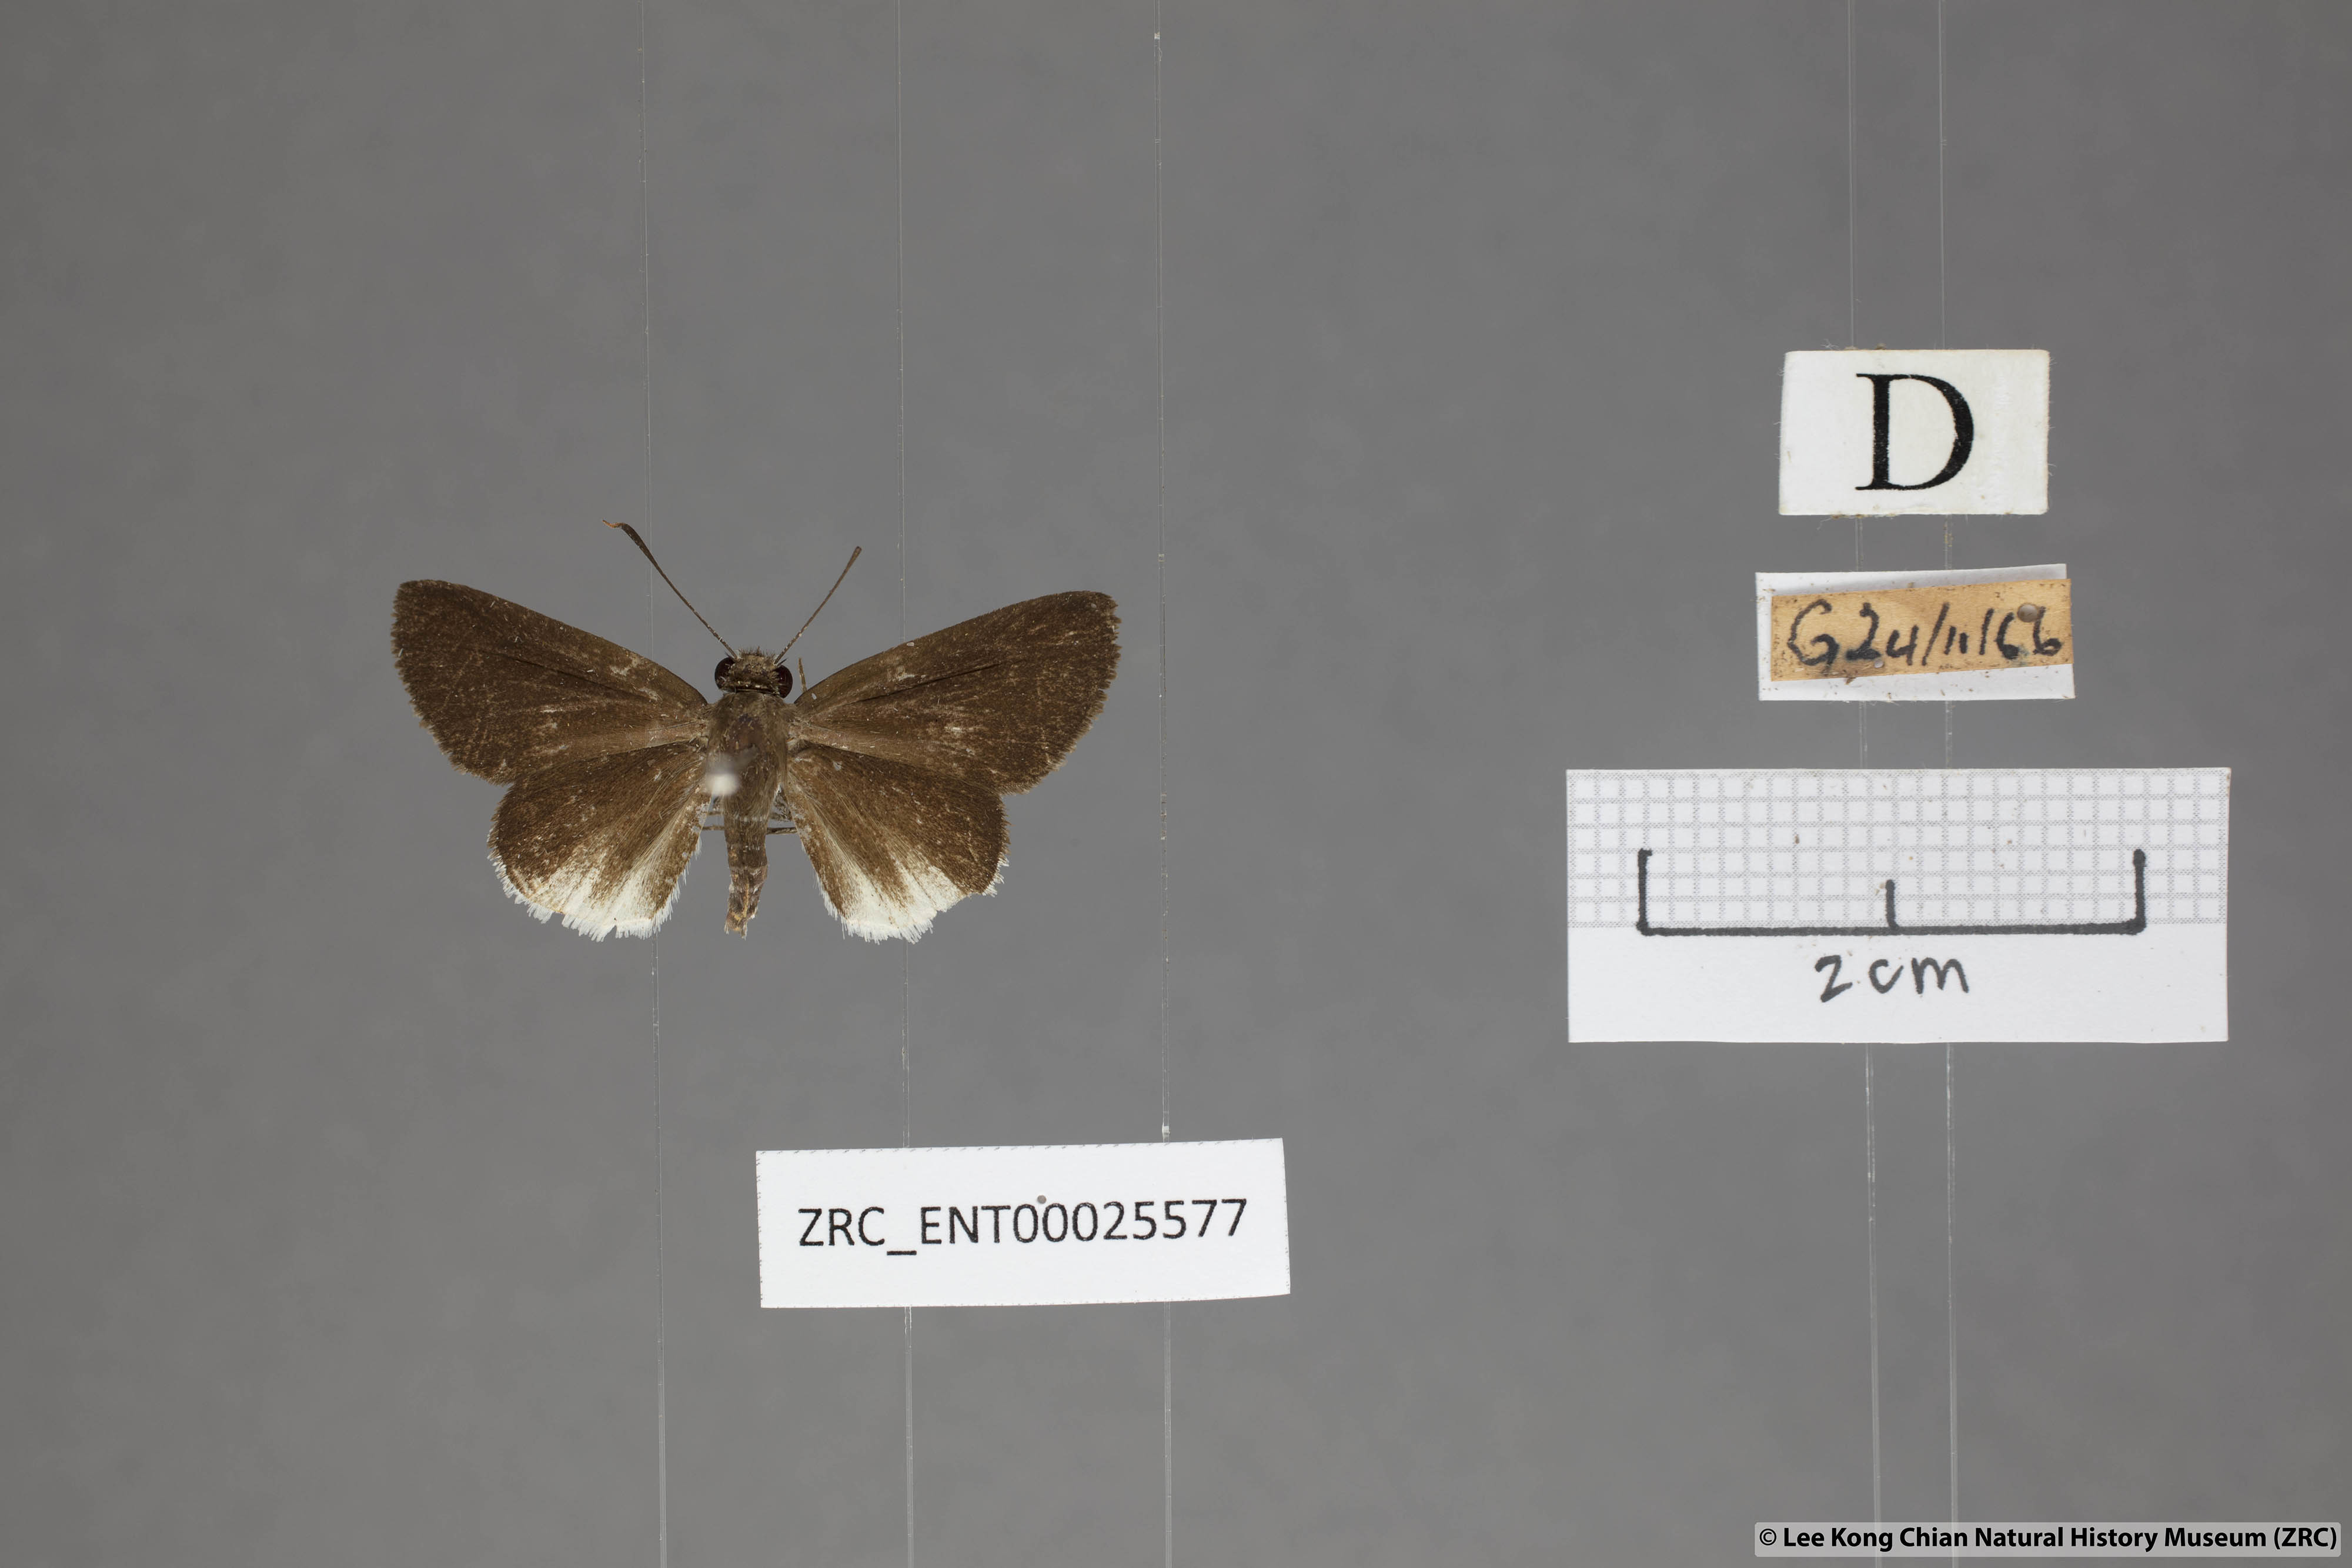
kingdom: Animalia
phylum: Arthropoda
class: Insecta
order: Lepidoptera
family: Hesperiidae
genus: Suastus
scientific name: Suastus everyx
